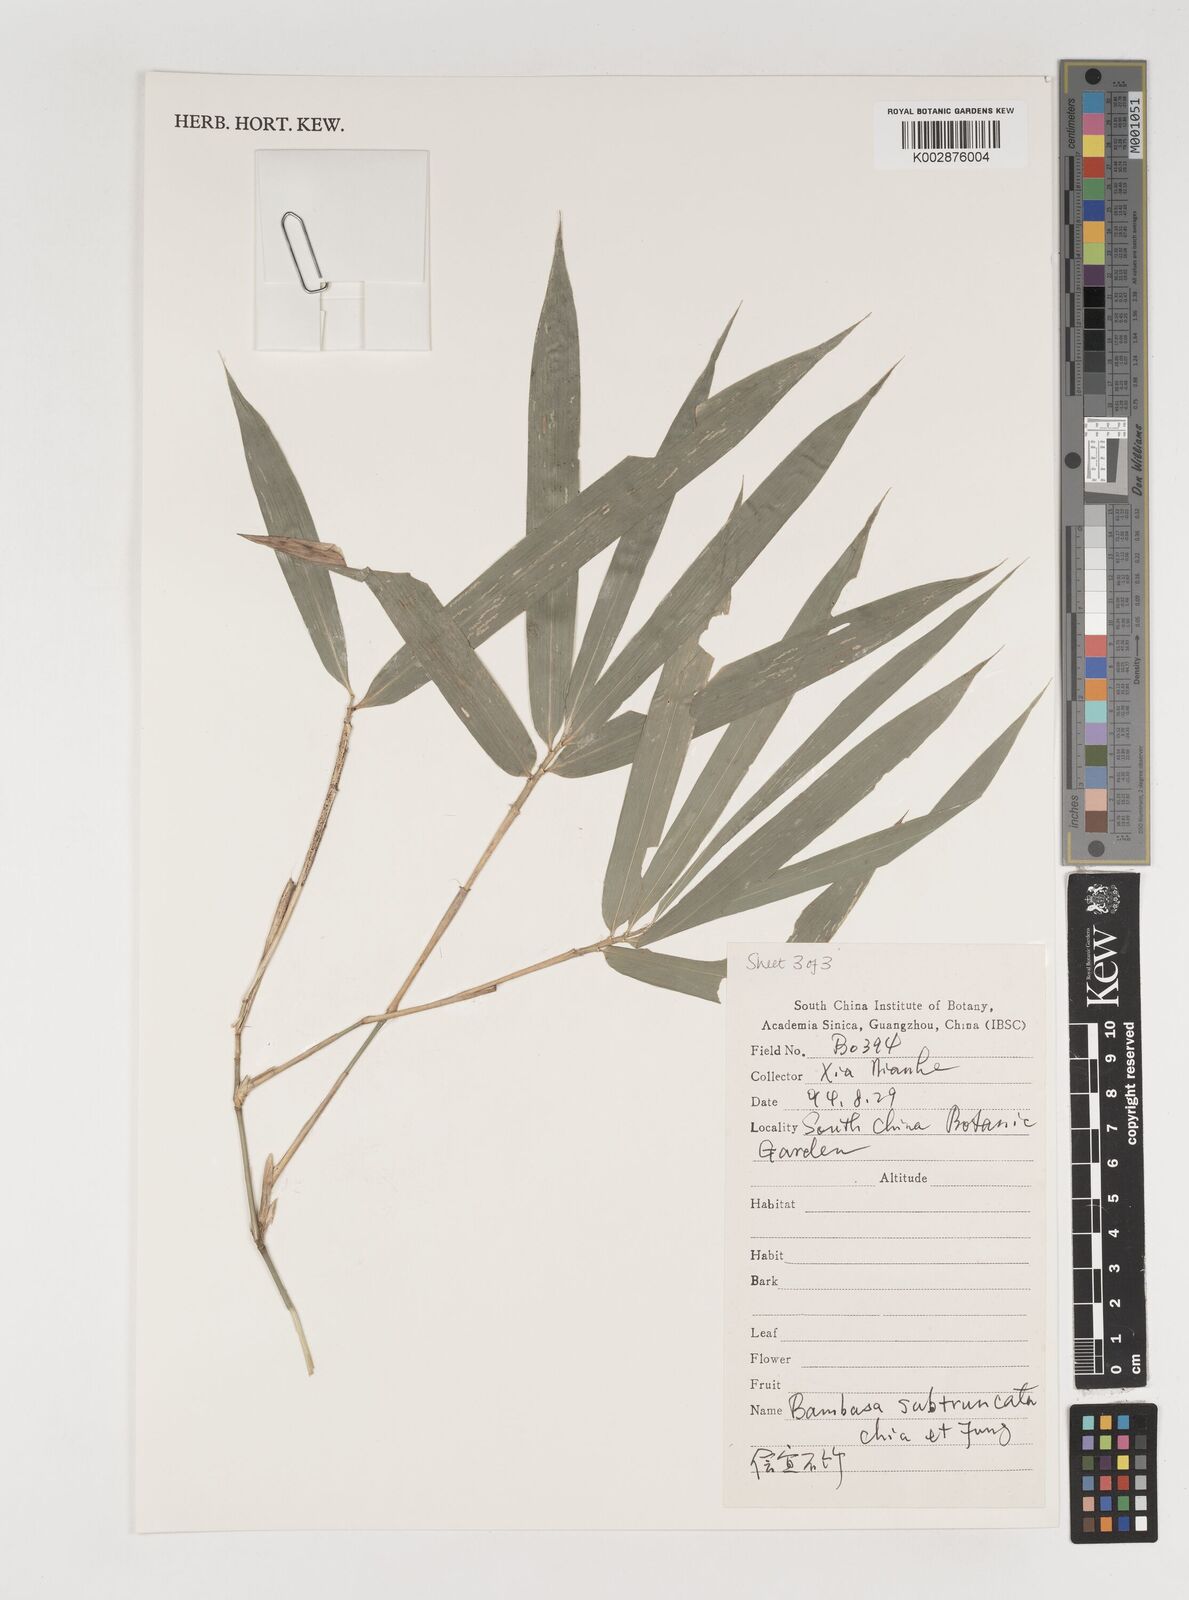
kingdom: Plantae
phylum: Tracheophyta
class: Liliopsida
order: Poales
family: Poaceae
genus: Bambusa
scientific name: Bambusa subtruncata
